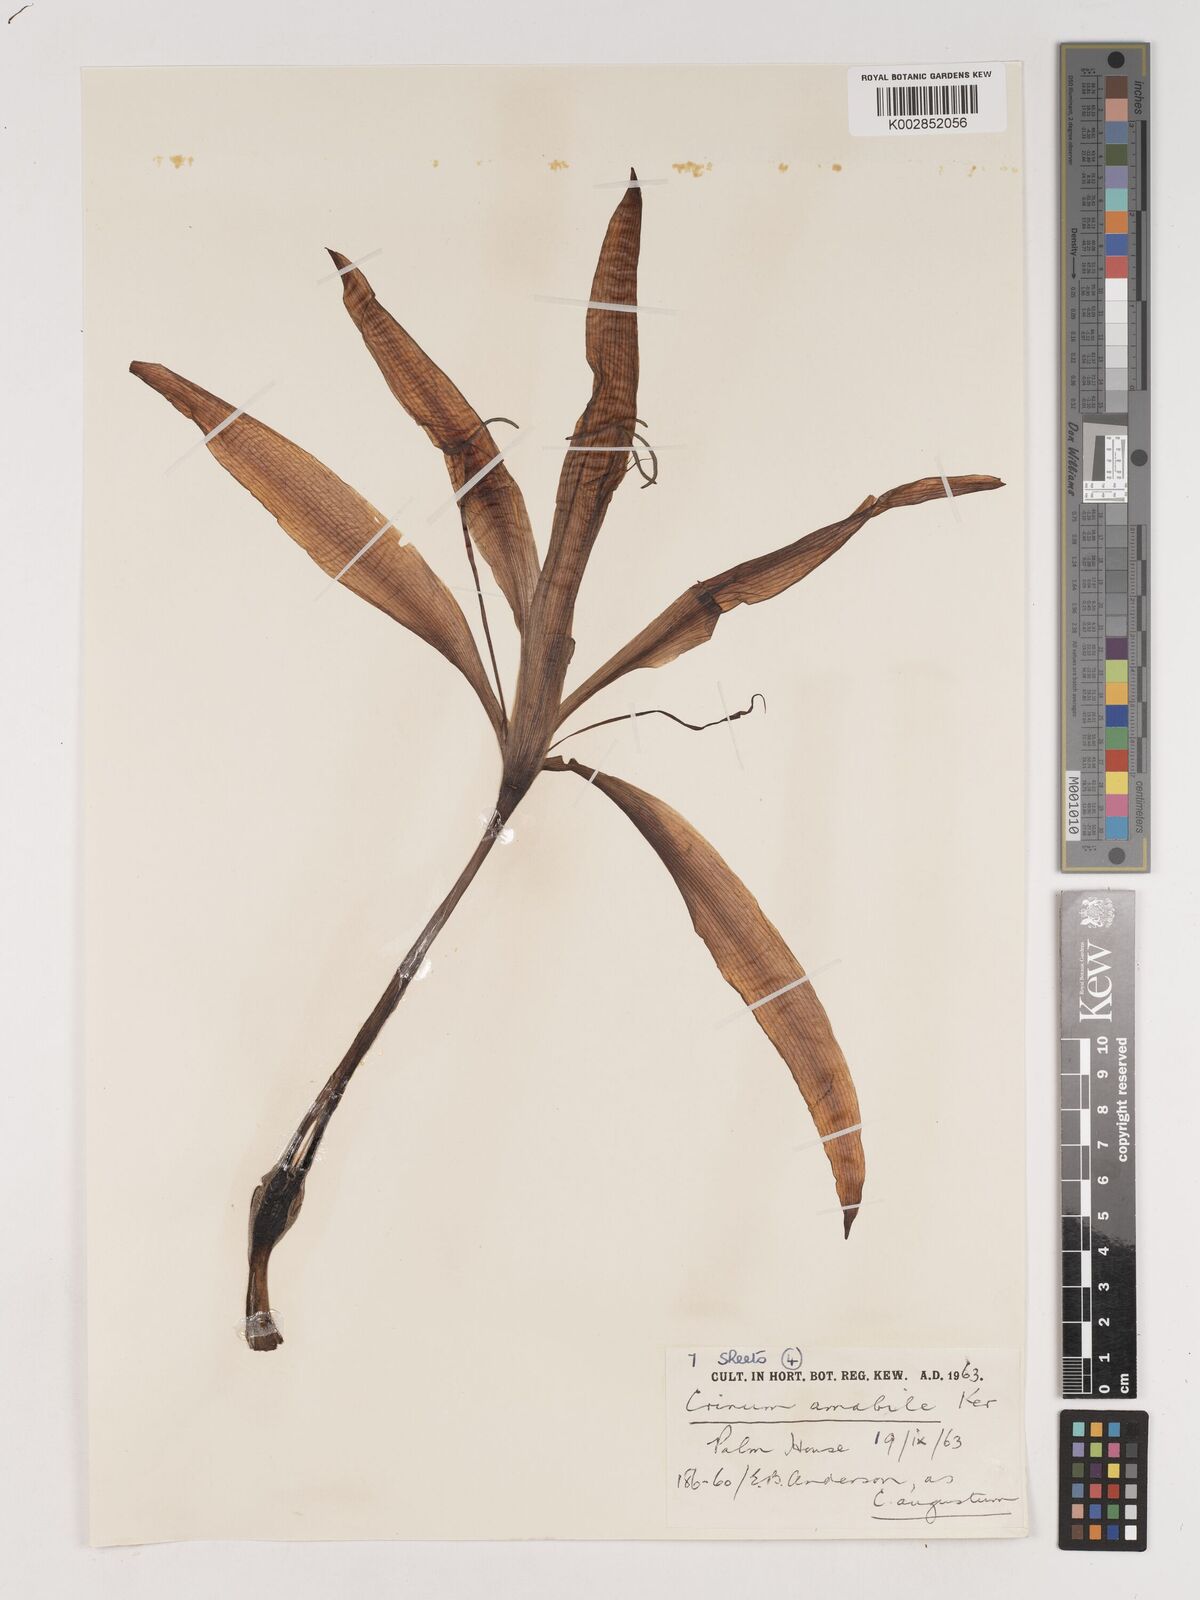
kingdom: Plantae
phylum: Tracheophyta
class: Liliopsida
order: Asparagales
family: Amaryllidaceae
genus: Crinum
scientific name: Crinum amabile
